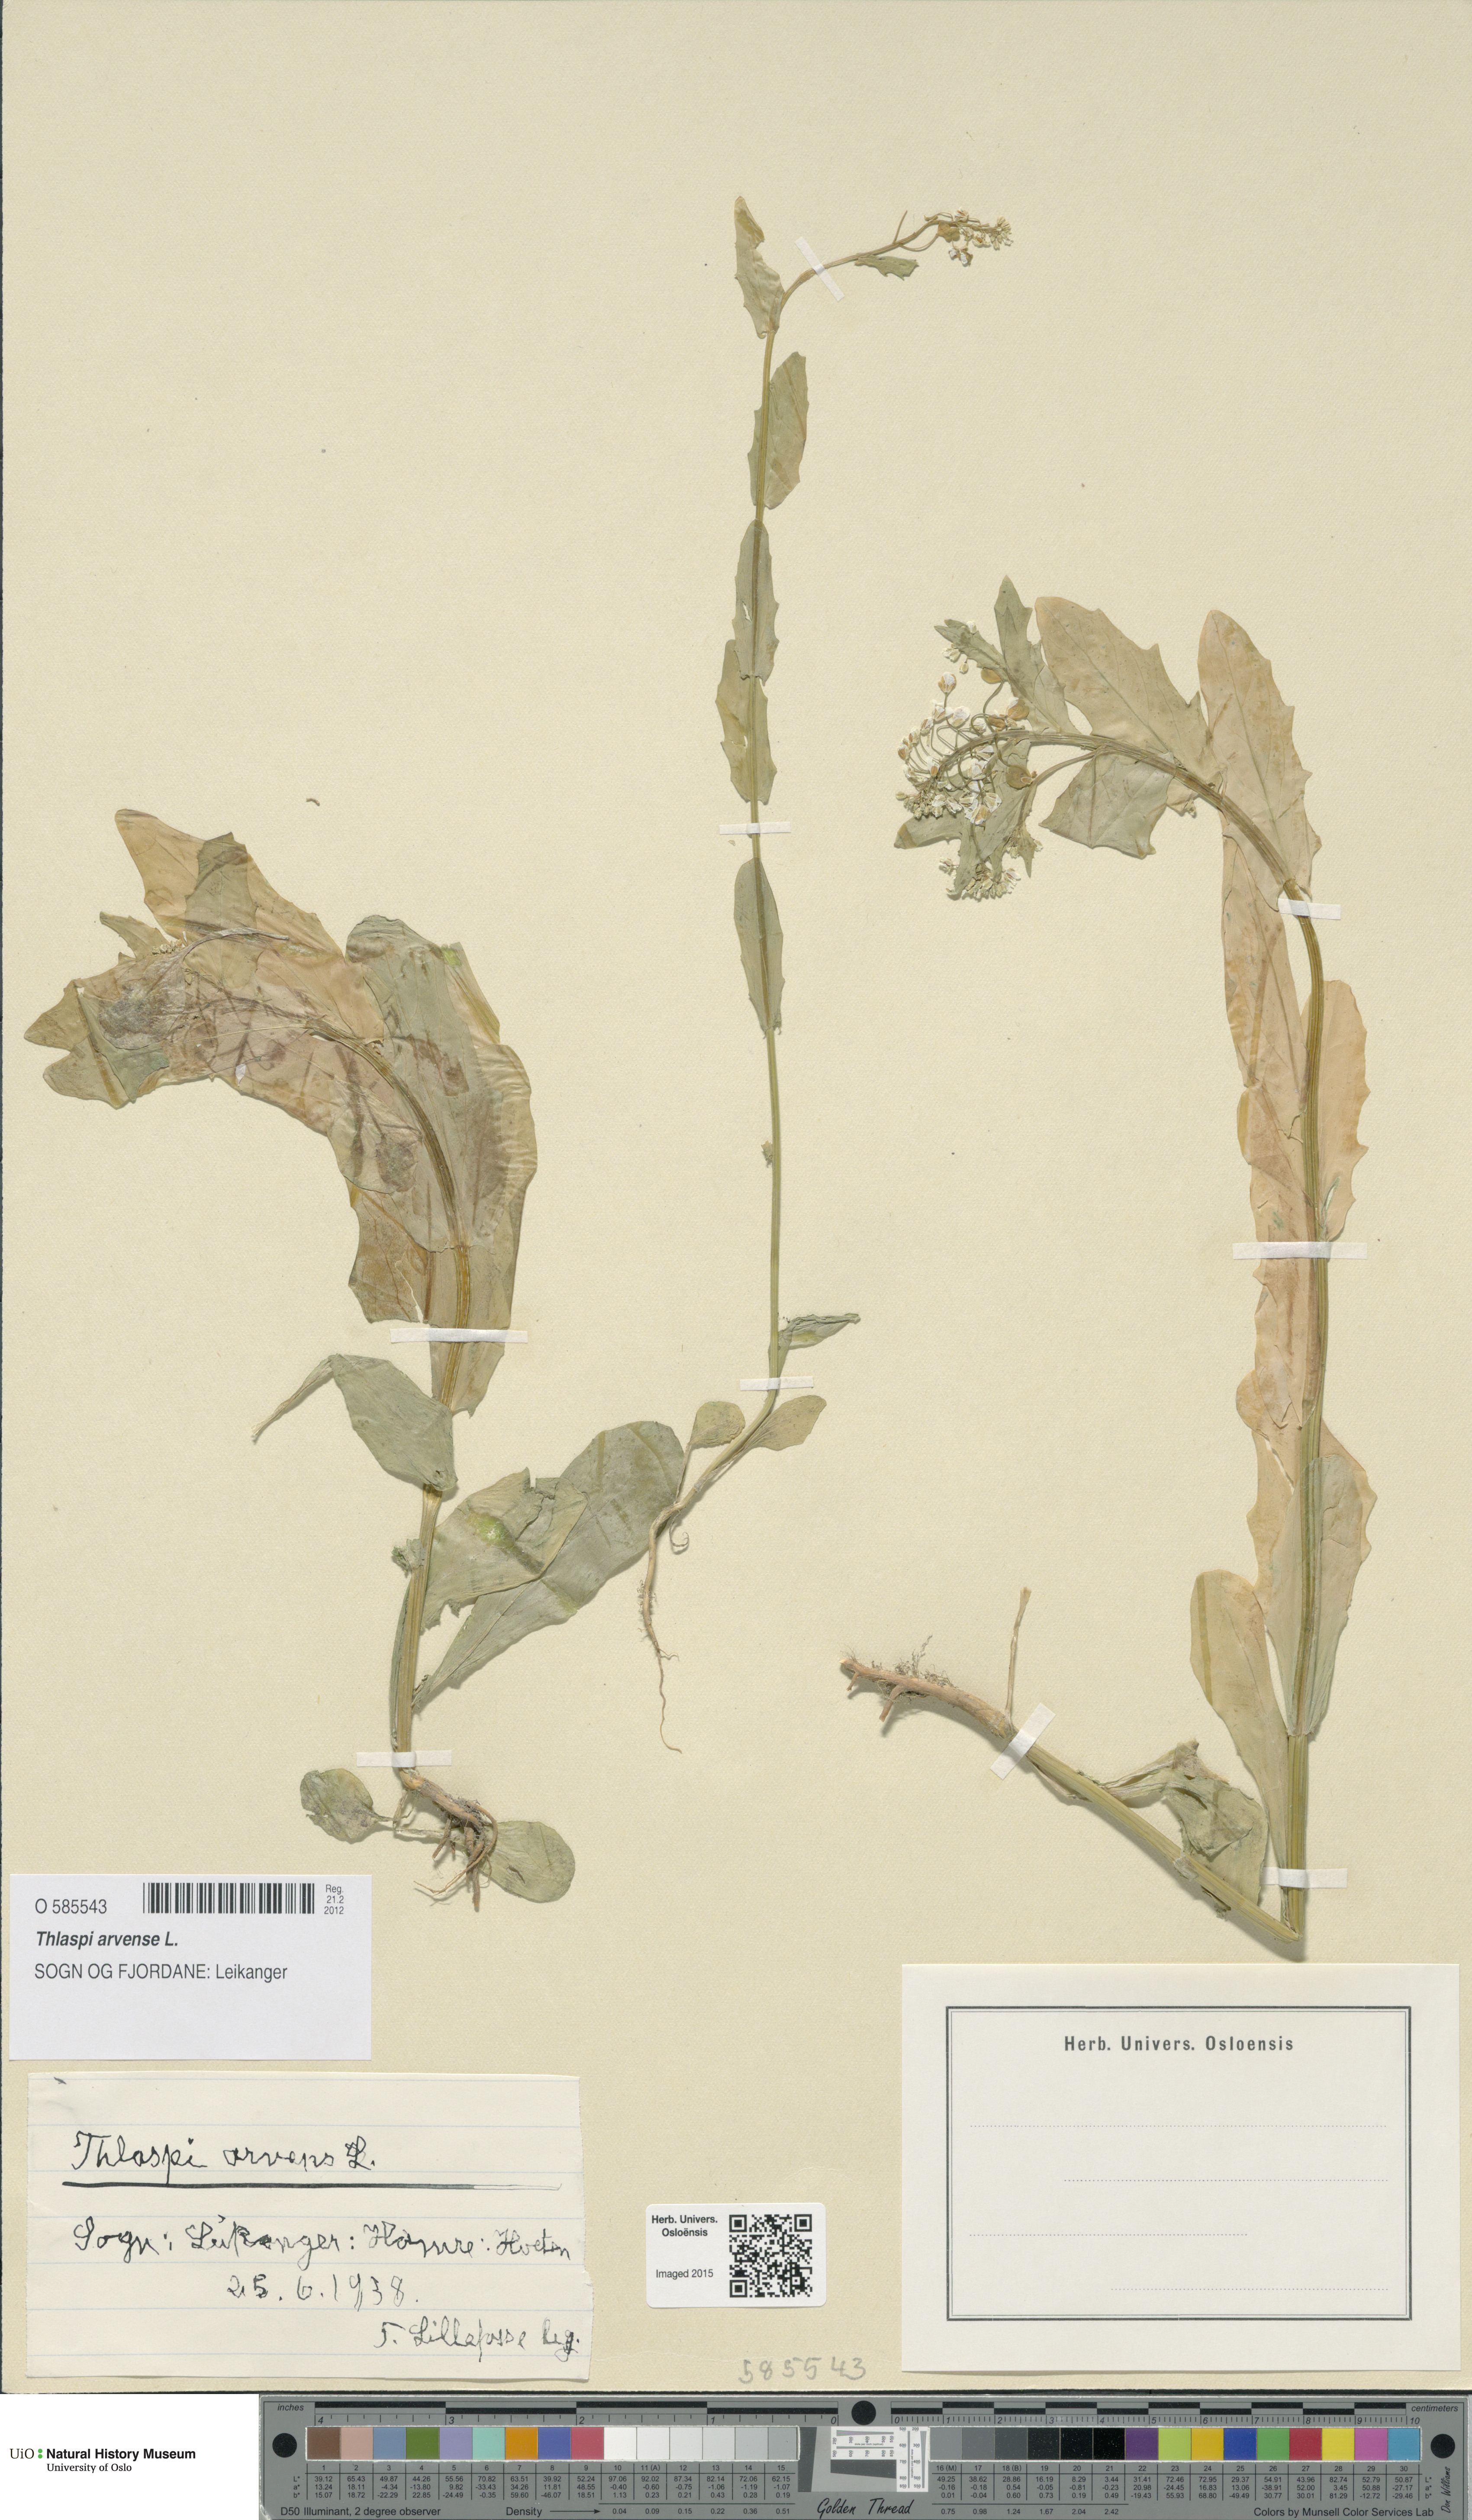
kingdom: Plantae
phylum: Tracheophyta
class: Magnoliopsida
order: Brassicales
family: Brassicaceae
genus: Thlaspi
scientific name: Thlaspi arvense
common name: Field pennycress
